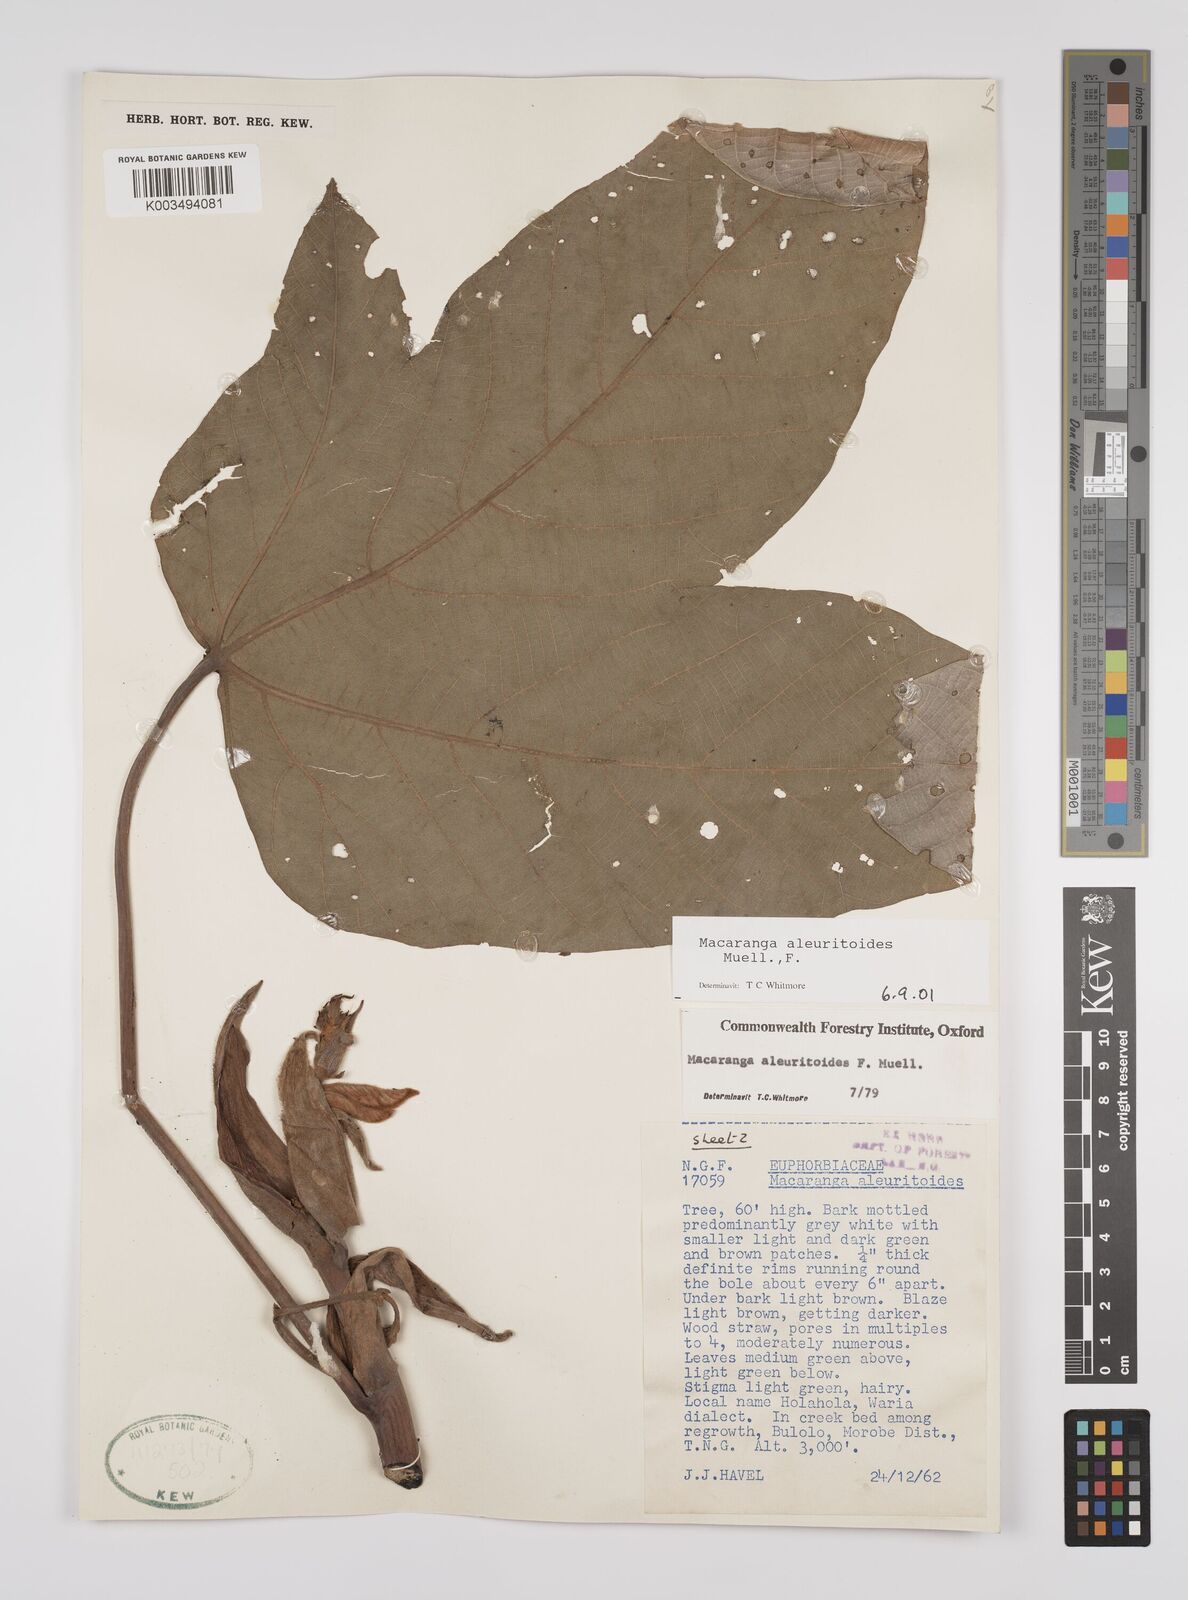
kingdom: Plantae
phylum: Tracheophyta
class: Magnoliopsida
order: Malpighiales
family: Euphorbiaceae
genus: Macaranga
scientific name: Macaranga aleuritoides
